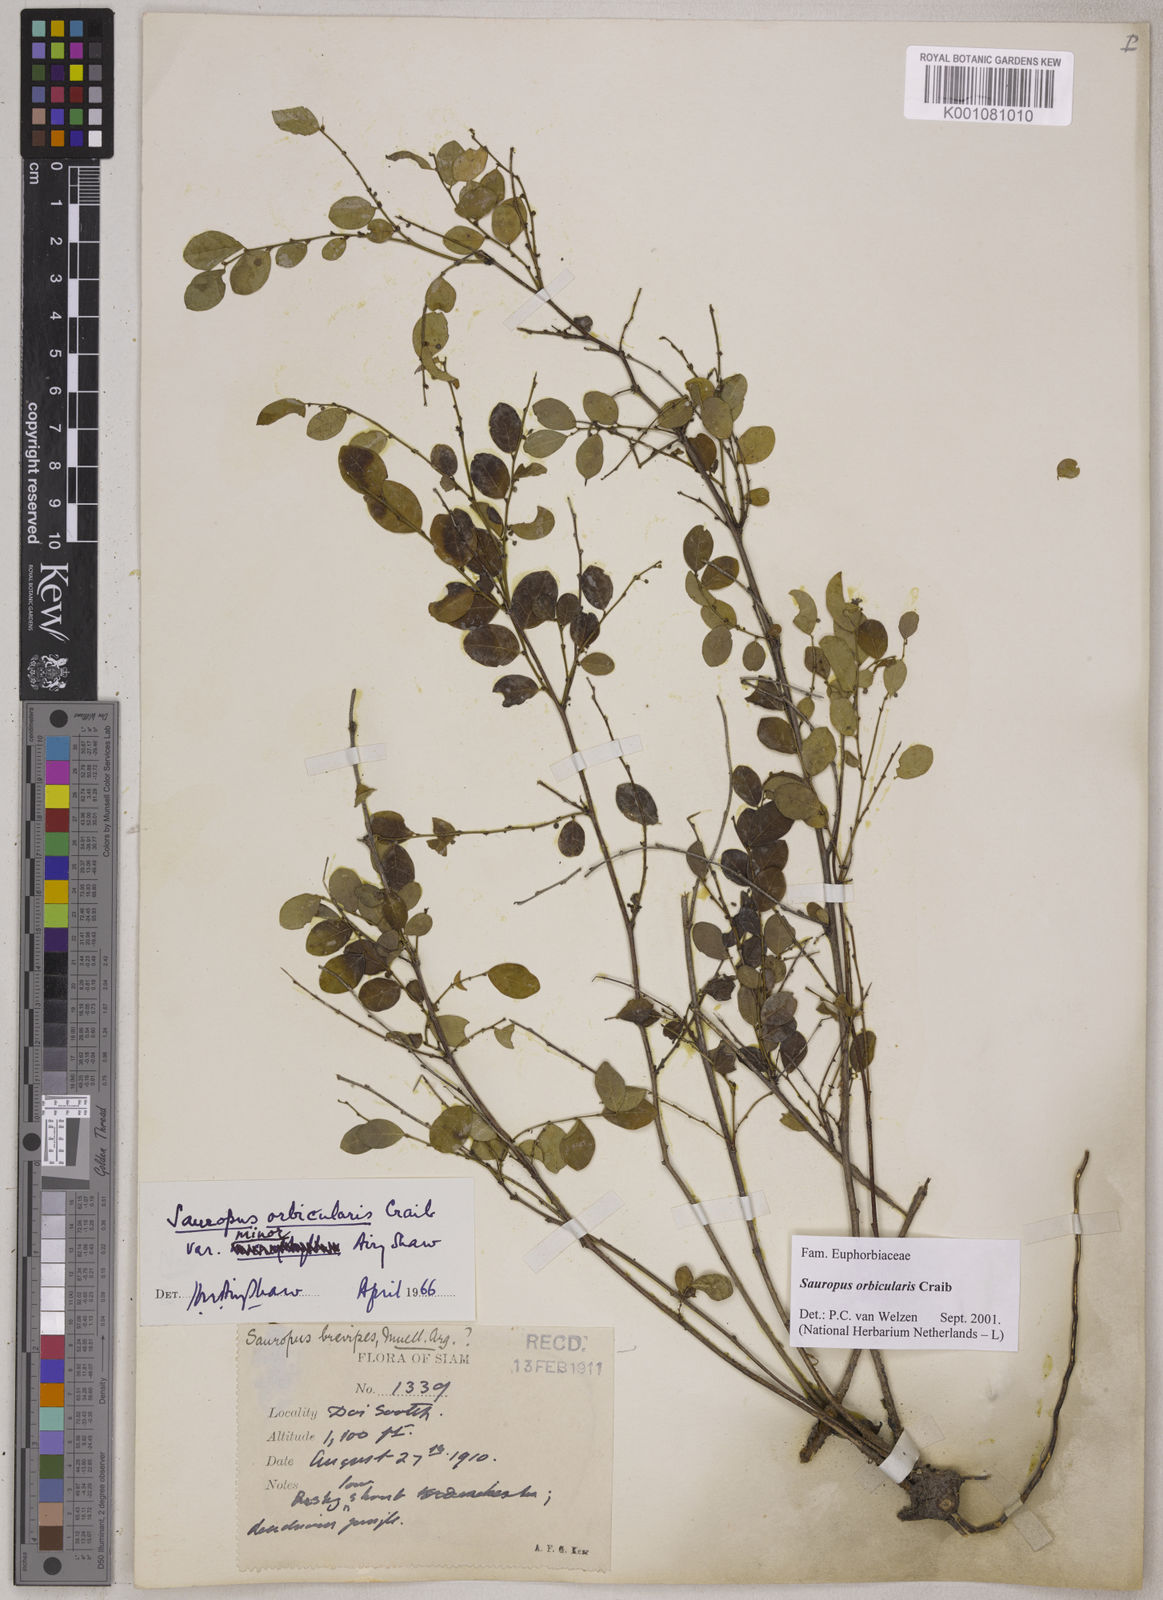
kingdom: Plantae
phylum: Tracheophyta
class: Magnoliopsida
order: Malpighiales
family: Phyllanthaceae
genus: Breynia
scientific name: Breynia orbicularis
